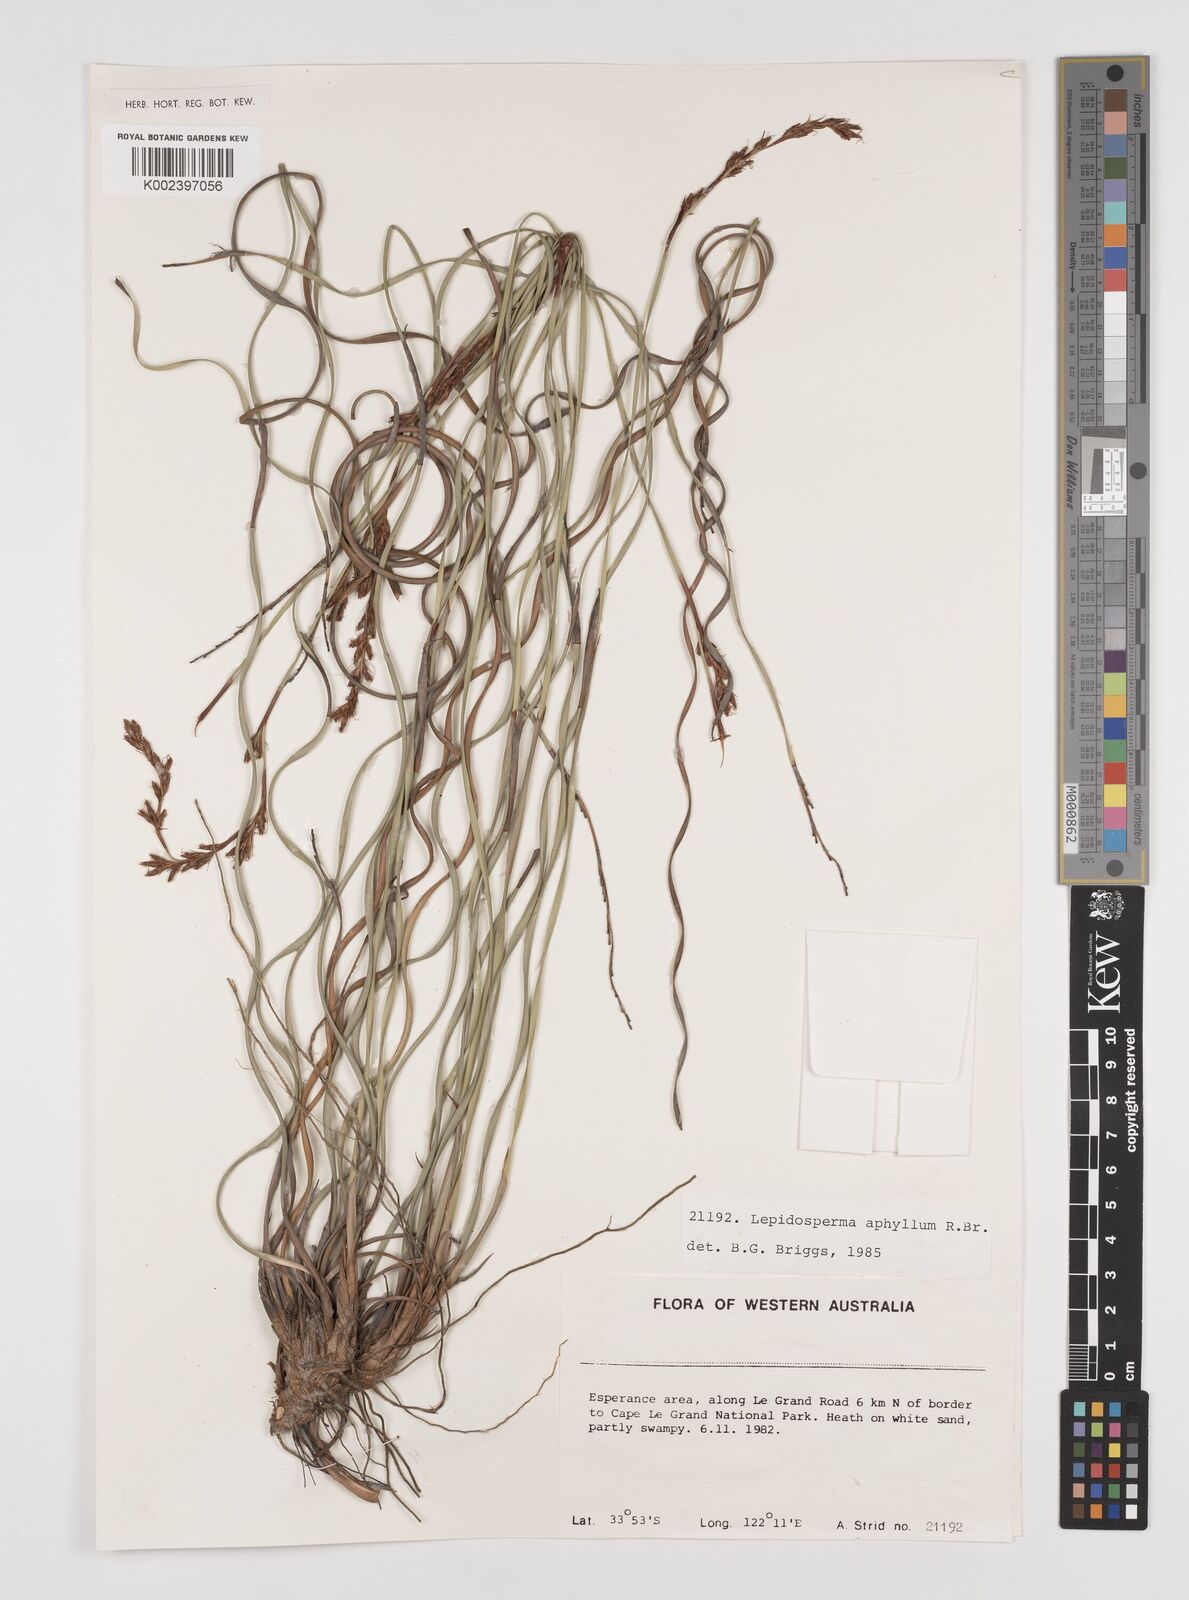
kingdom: Plantae
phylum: Tracheophyta
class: Liliopsida
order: Poales
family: Cyperaceae
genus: Lepidosperma
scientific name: Lepidosperma aphyllum
